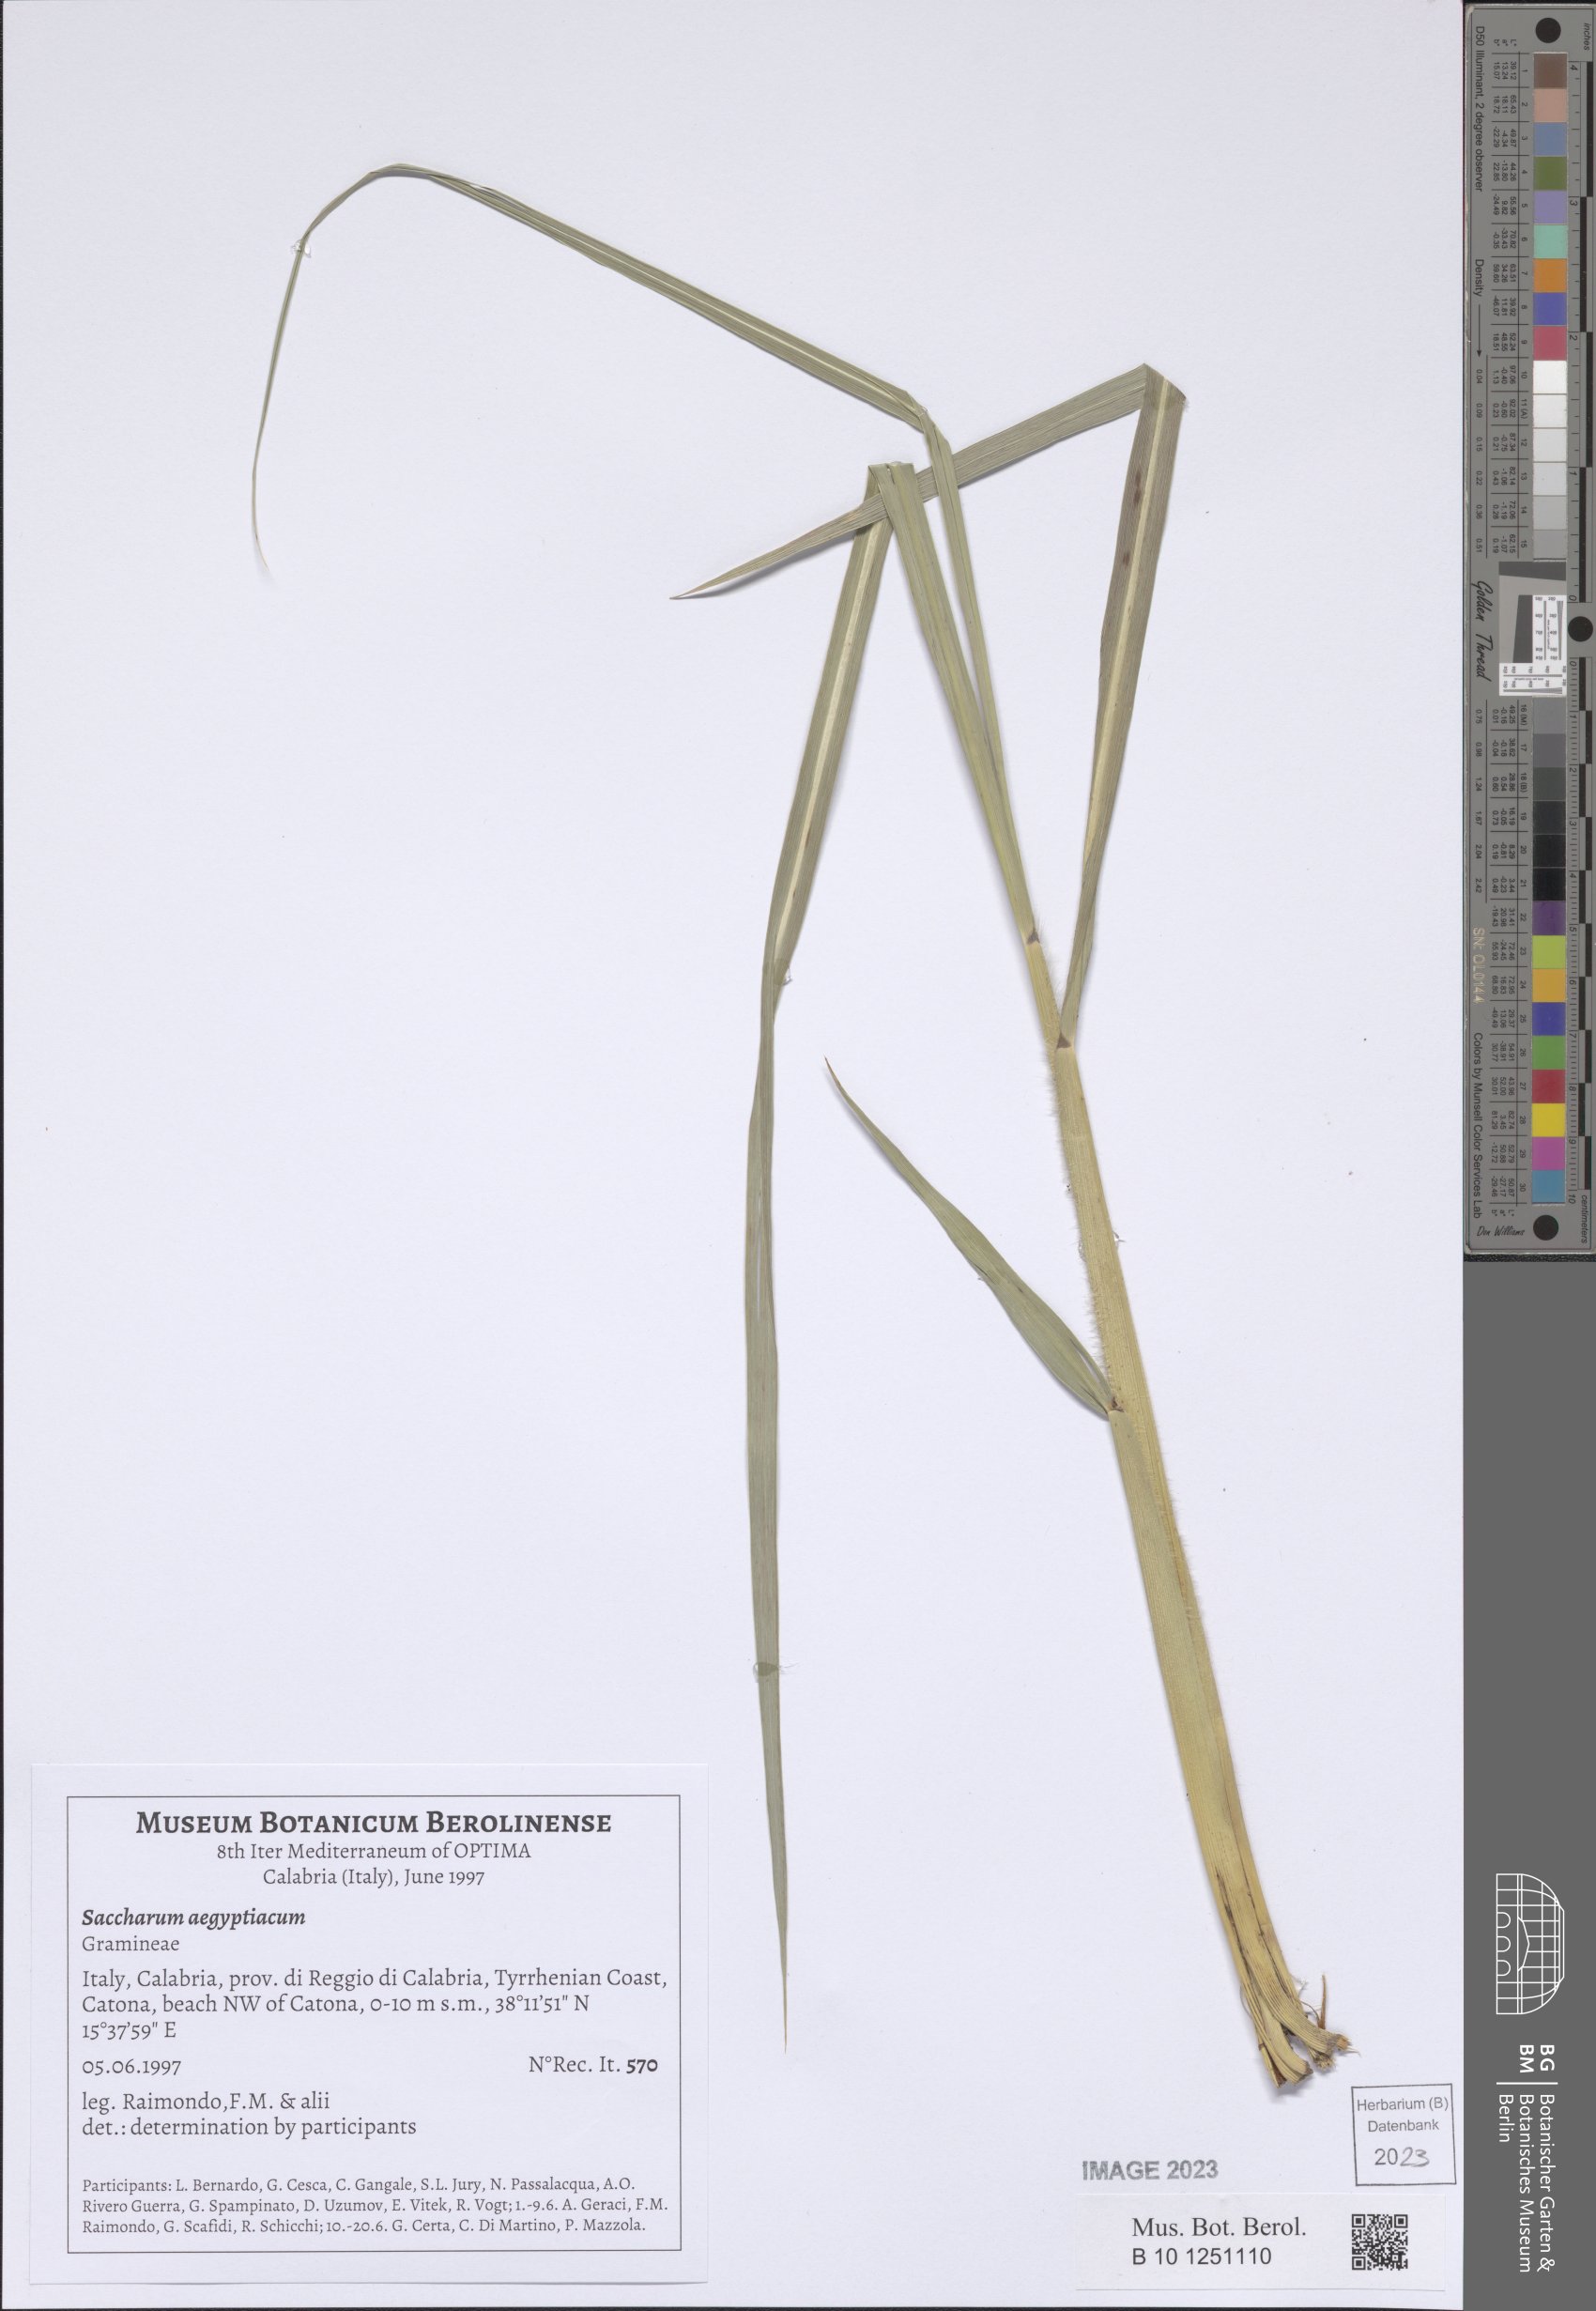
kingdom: Plantae
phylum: Tracheophyta
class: Liliopsida
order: Poales
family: Poaceae
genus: Saccharum
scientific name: Saccharum spontaneum
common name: Wild sugarcane
